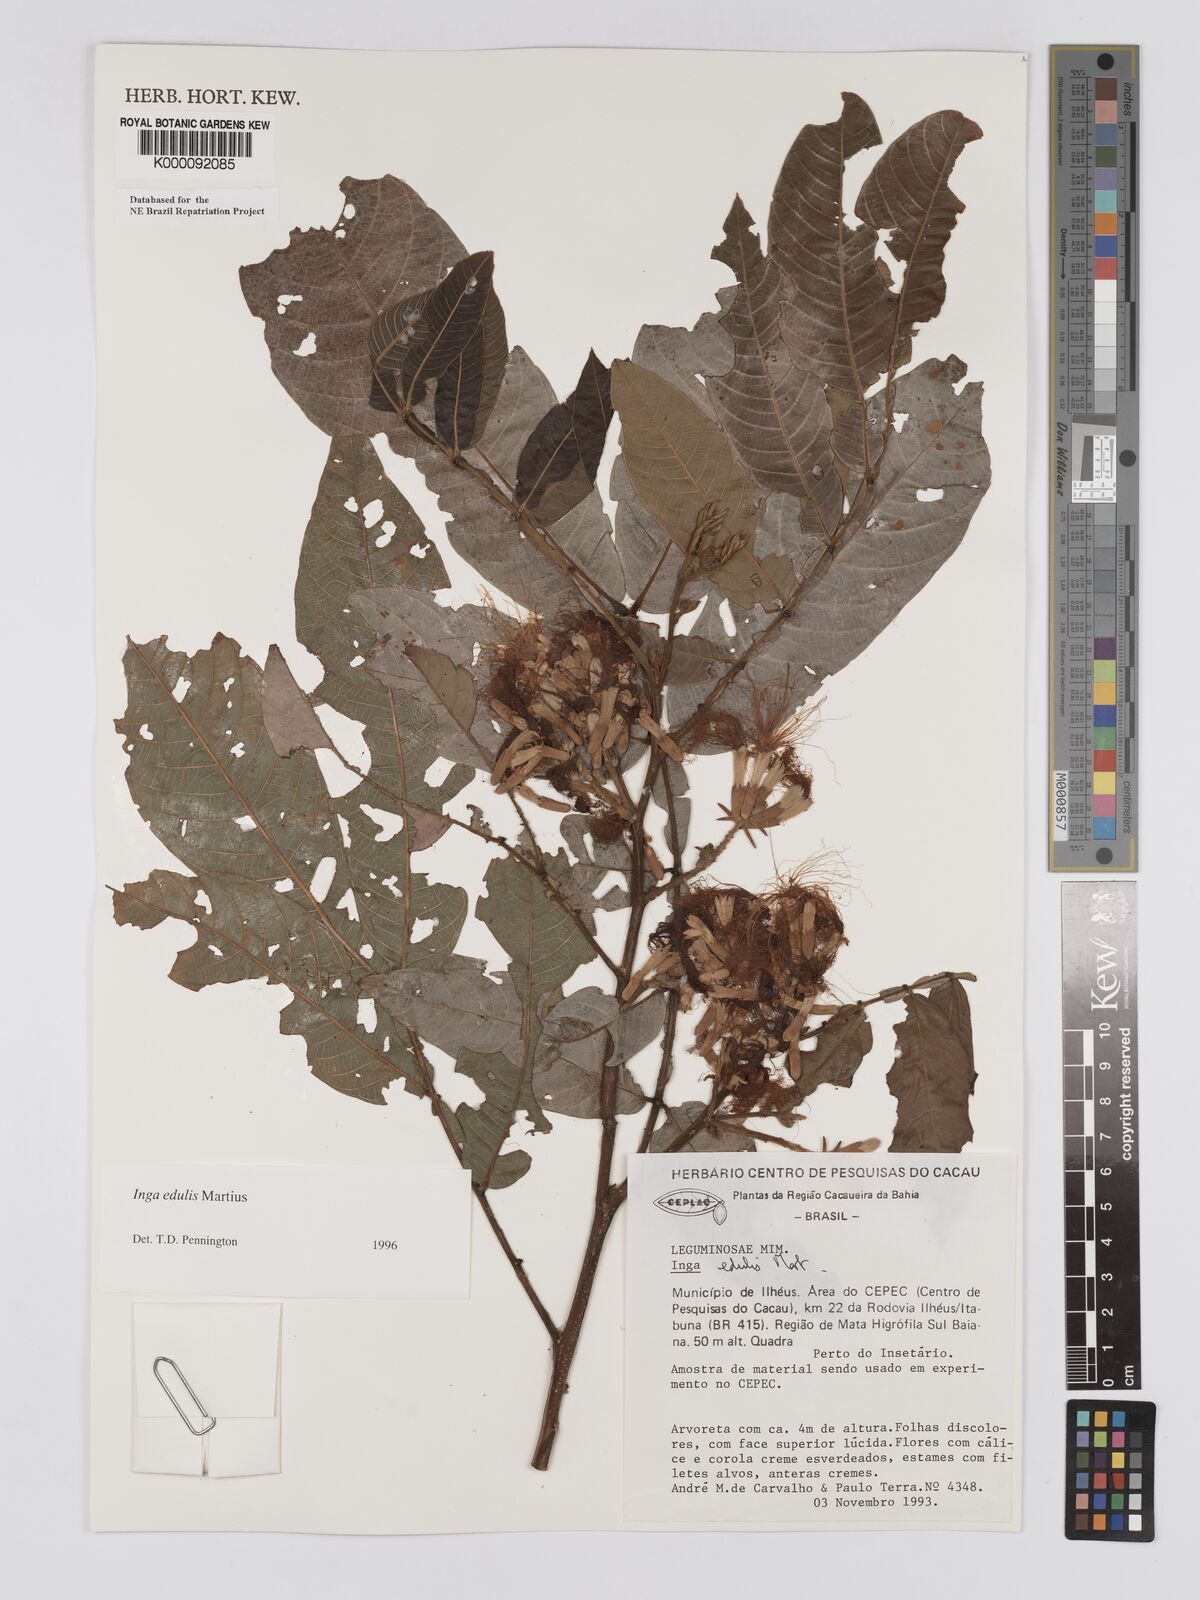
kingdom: Plantae
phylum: Tracheophyta
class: Magnoliopsida
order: Fabales
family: Fabaceae
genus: Inga
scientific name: Inga edulis
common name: Ice cream bean
